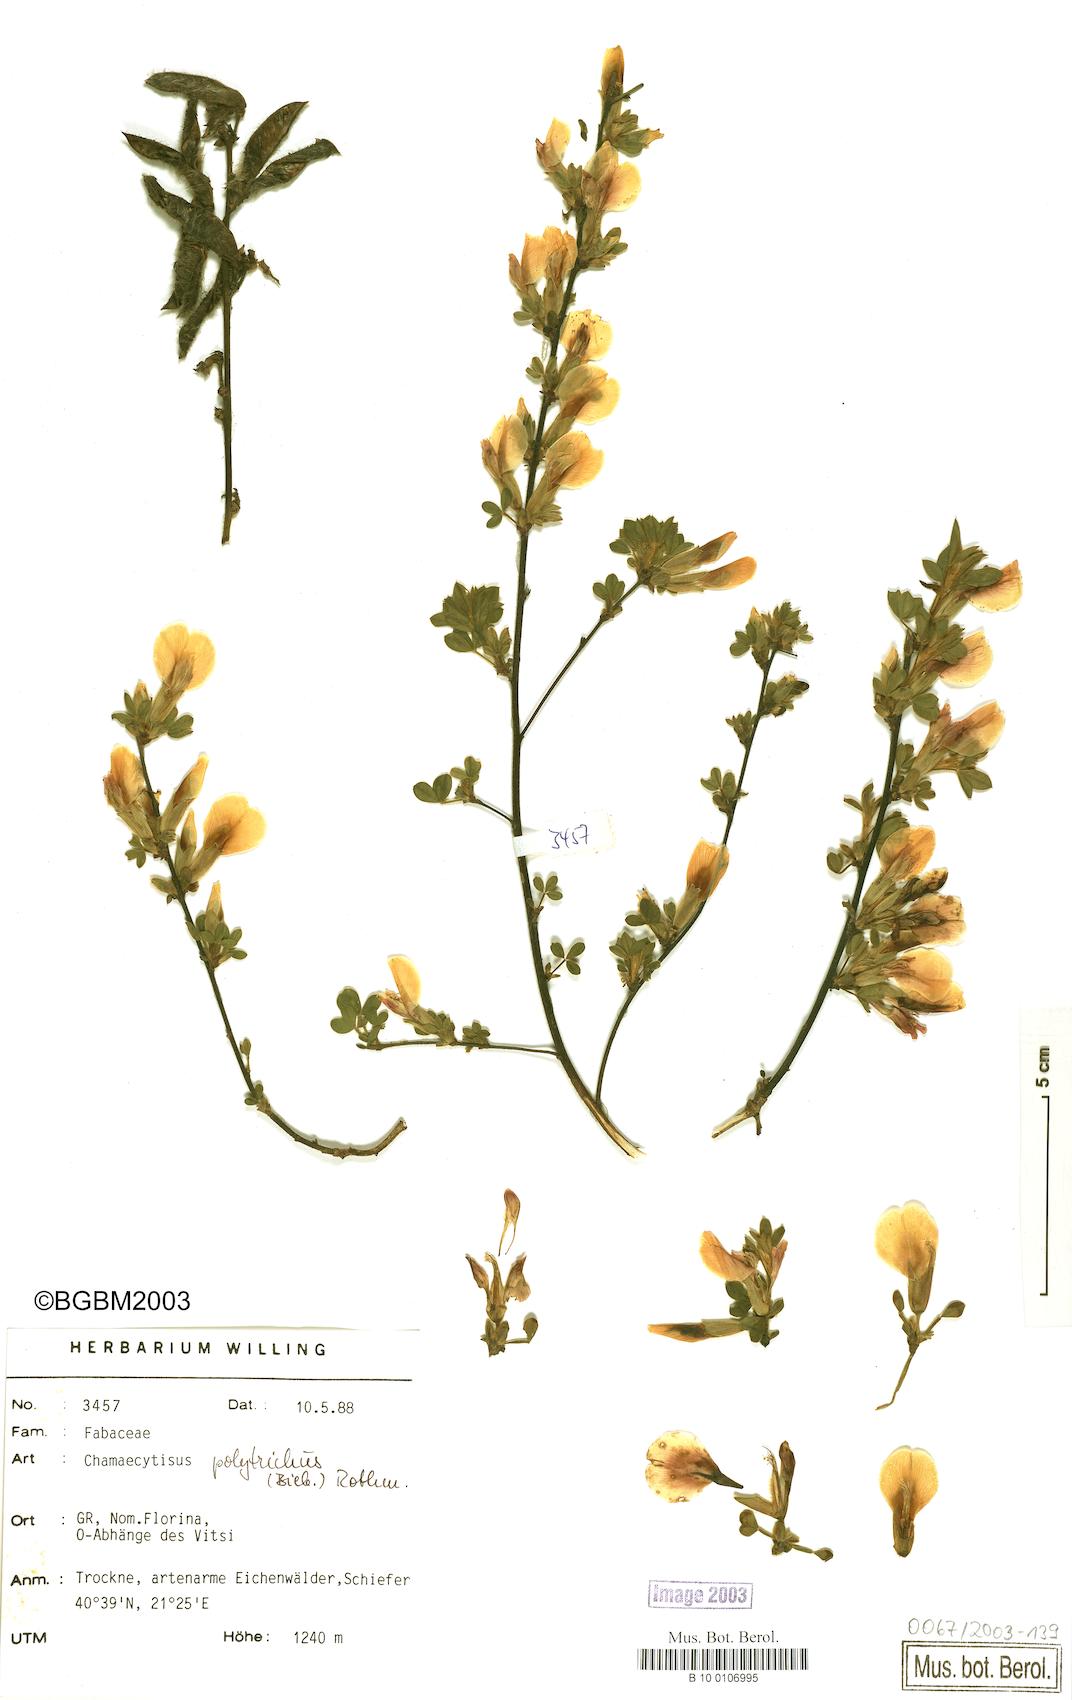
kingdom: Plantae
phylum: Tracheophyta
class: Magnoliopsida
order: Fabales
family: Fabaceae
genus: Chamaecytisus
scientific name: Chamaecytisus hirsutus
